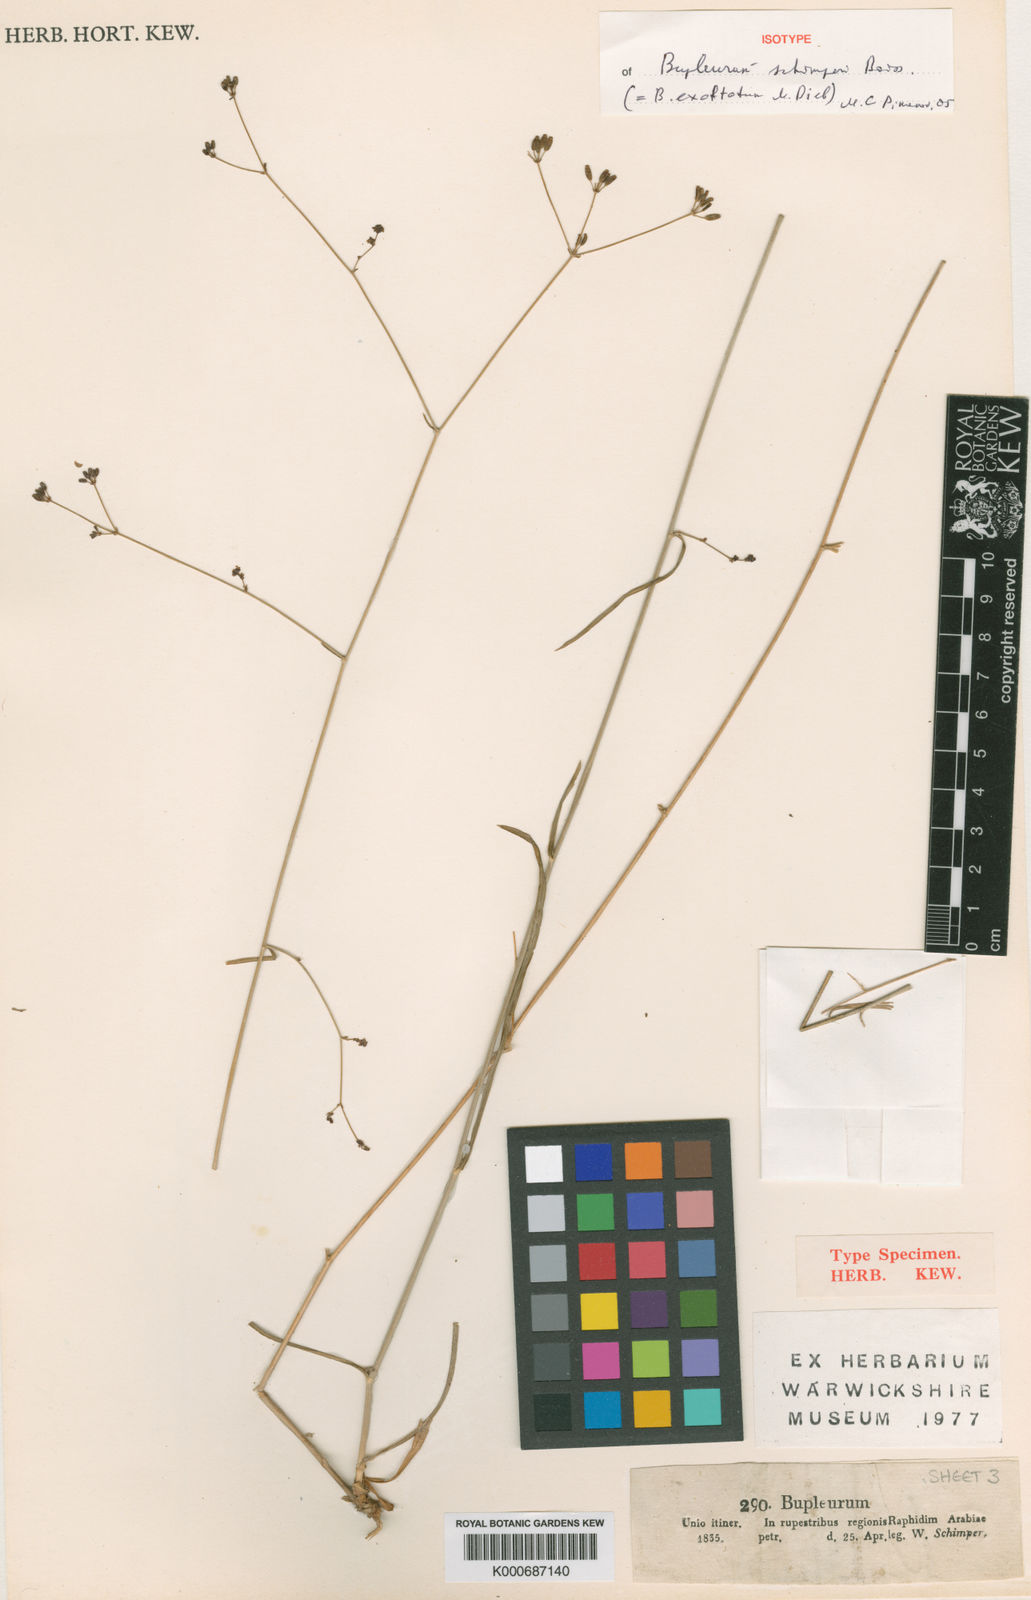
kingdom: Plantae
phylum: Tracheophyta
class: Magnoliopsida
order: Apiales
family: Apiaceae
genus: Bupleurum
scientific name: Bupleurum
